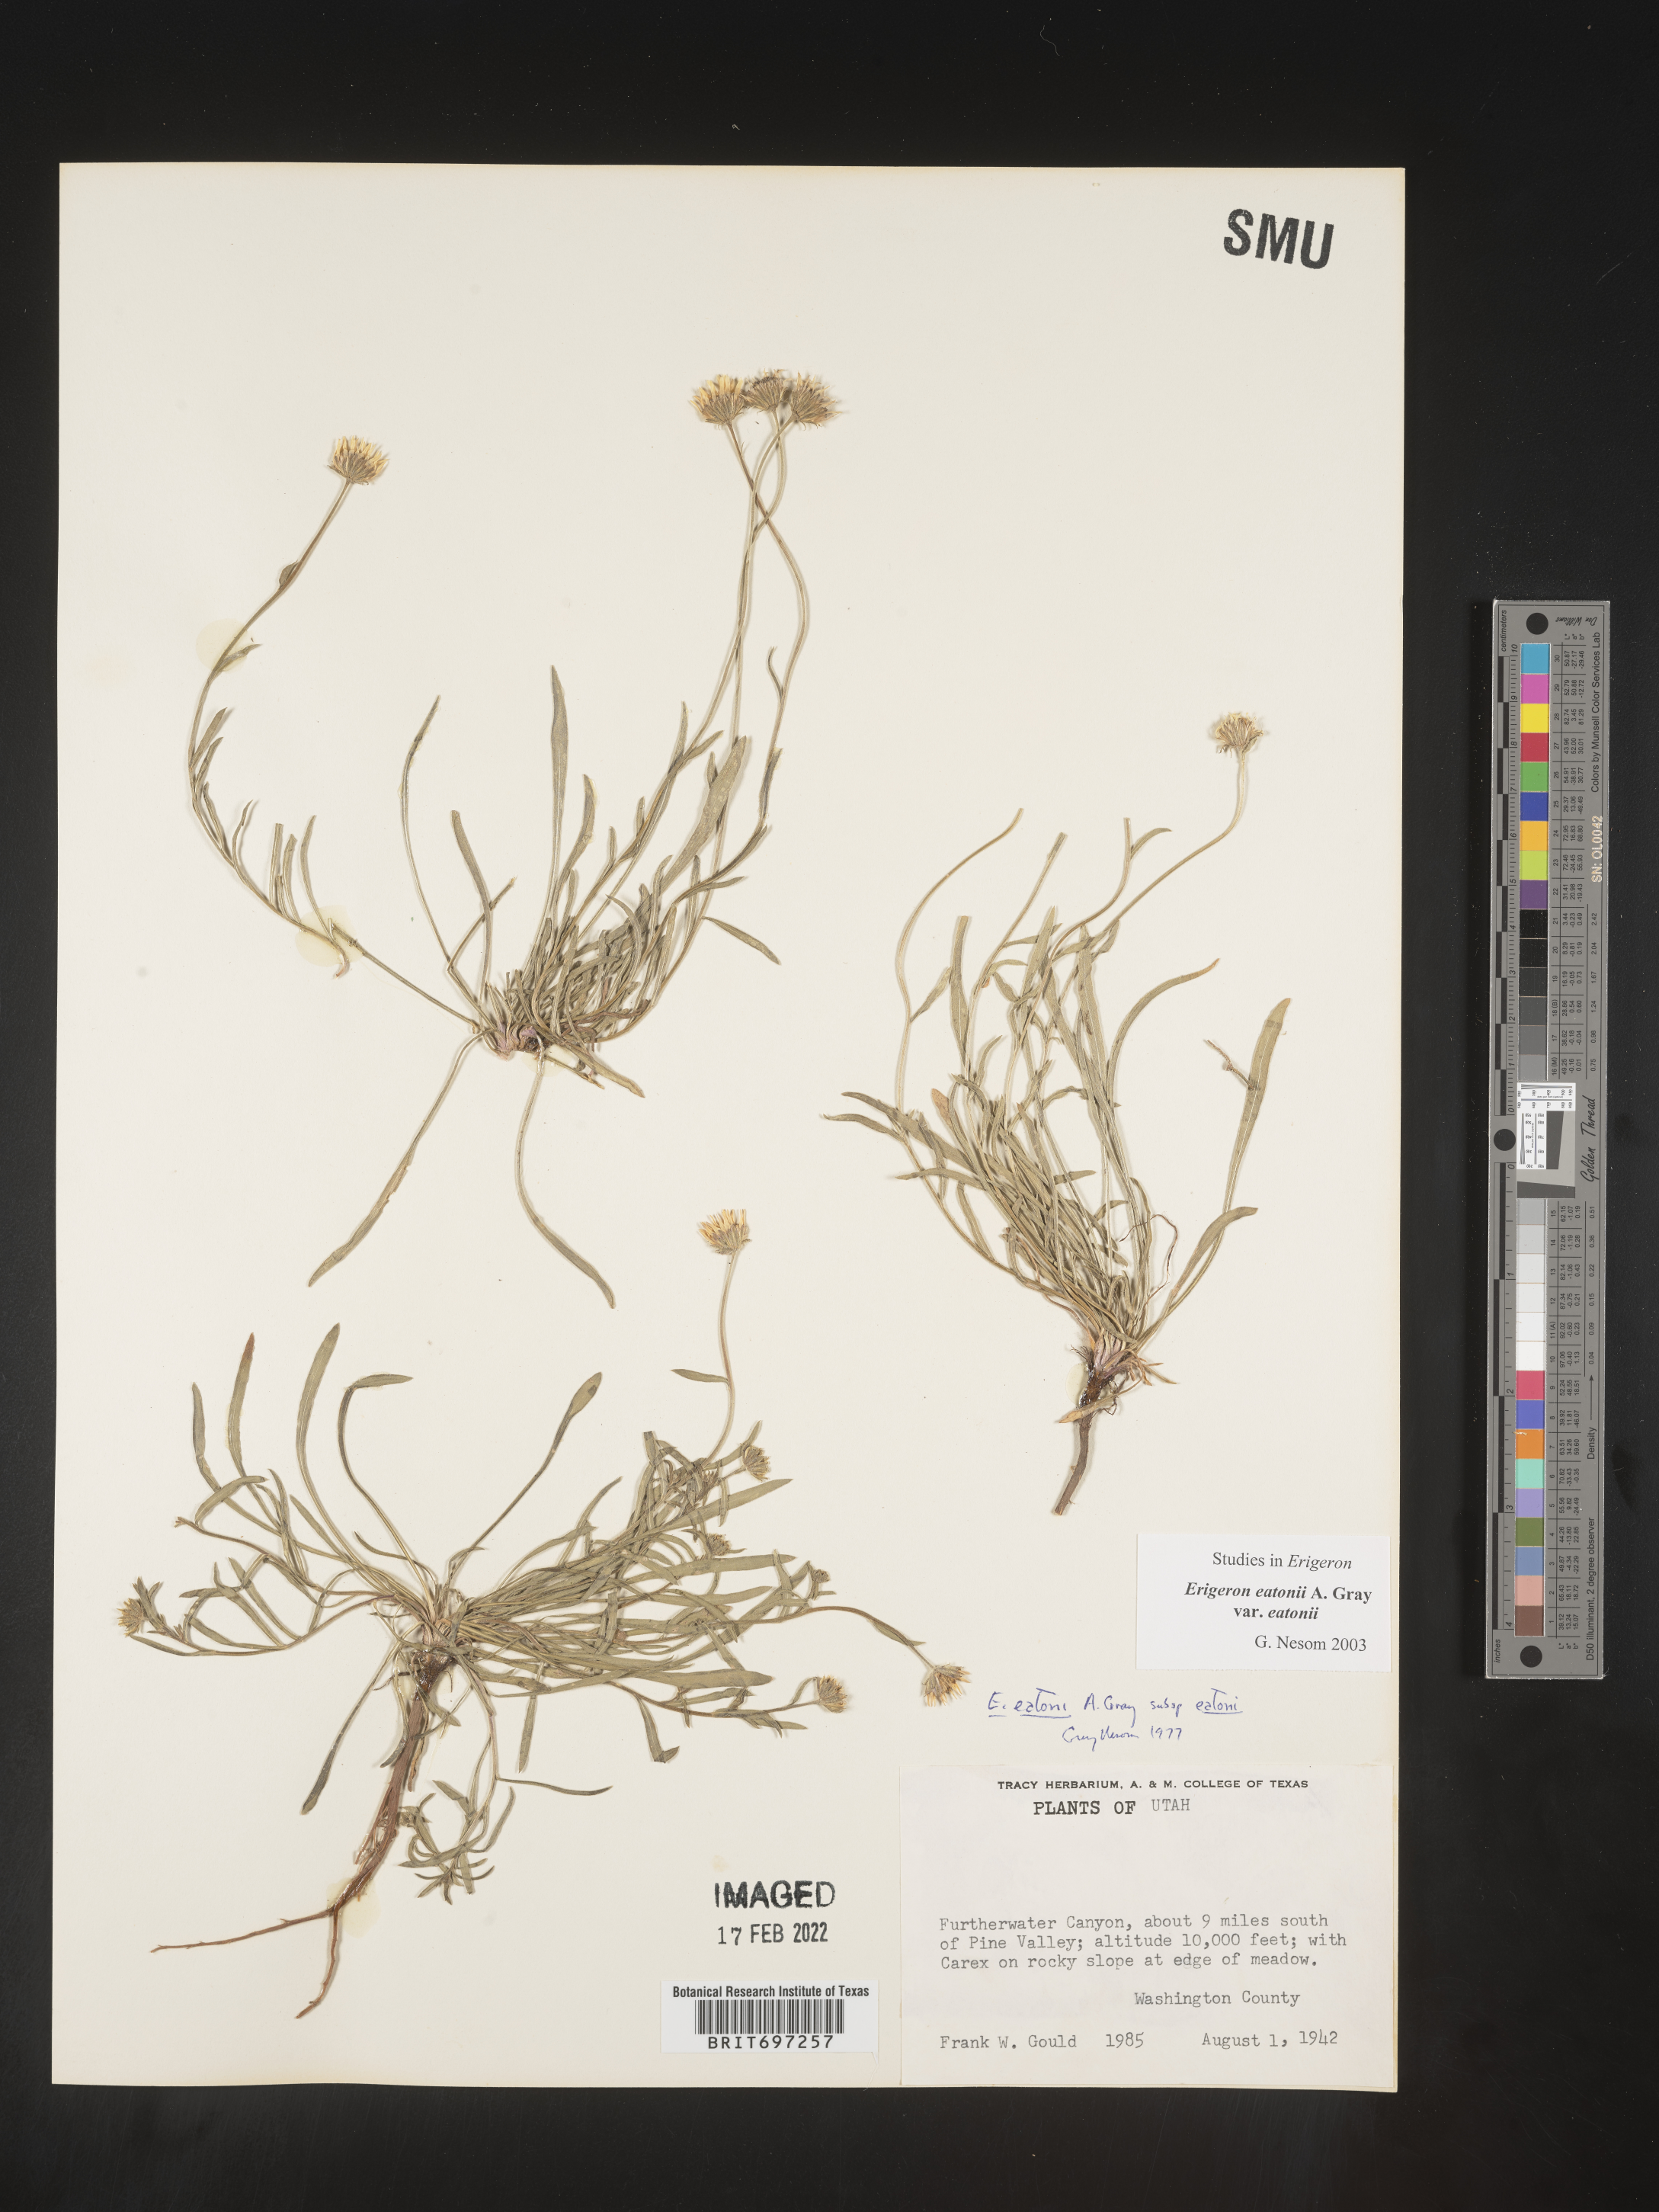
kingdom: Plantae
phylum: Tracheophyta
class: Magnoliopsida
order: Asterales
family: Asteraceae
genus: Erigeron
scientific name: Erigeron eatonii
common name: Eaton's fleabane
